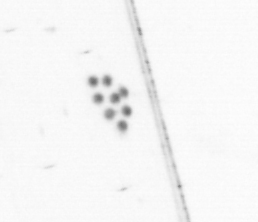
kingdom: Animalia
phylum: Chaetognatha
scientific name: Chaetognatha
